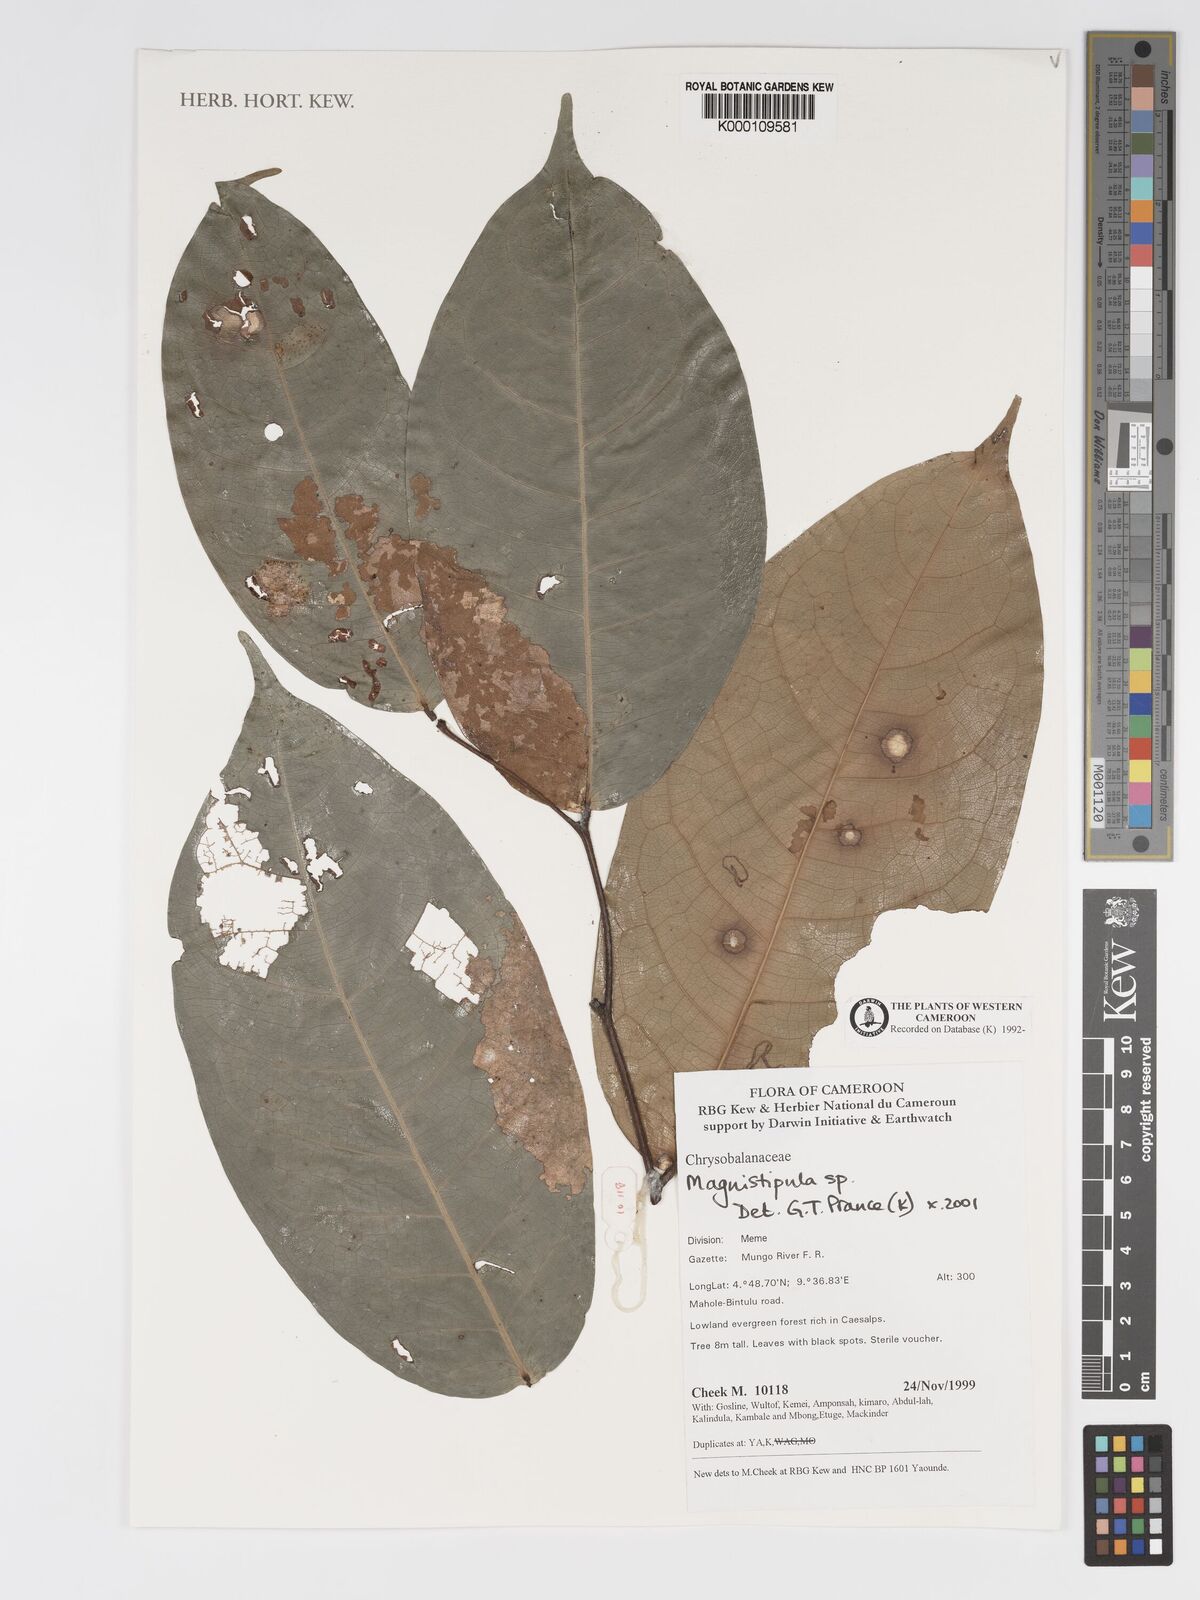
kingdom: Plantae
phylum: Tracheophyta
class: Magnoliopsida
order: Malpighiales
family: Chrysobalanaceae
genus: Magnistipula
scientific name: Magnistipula
